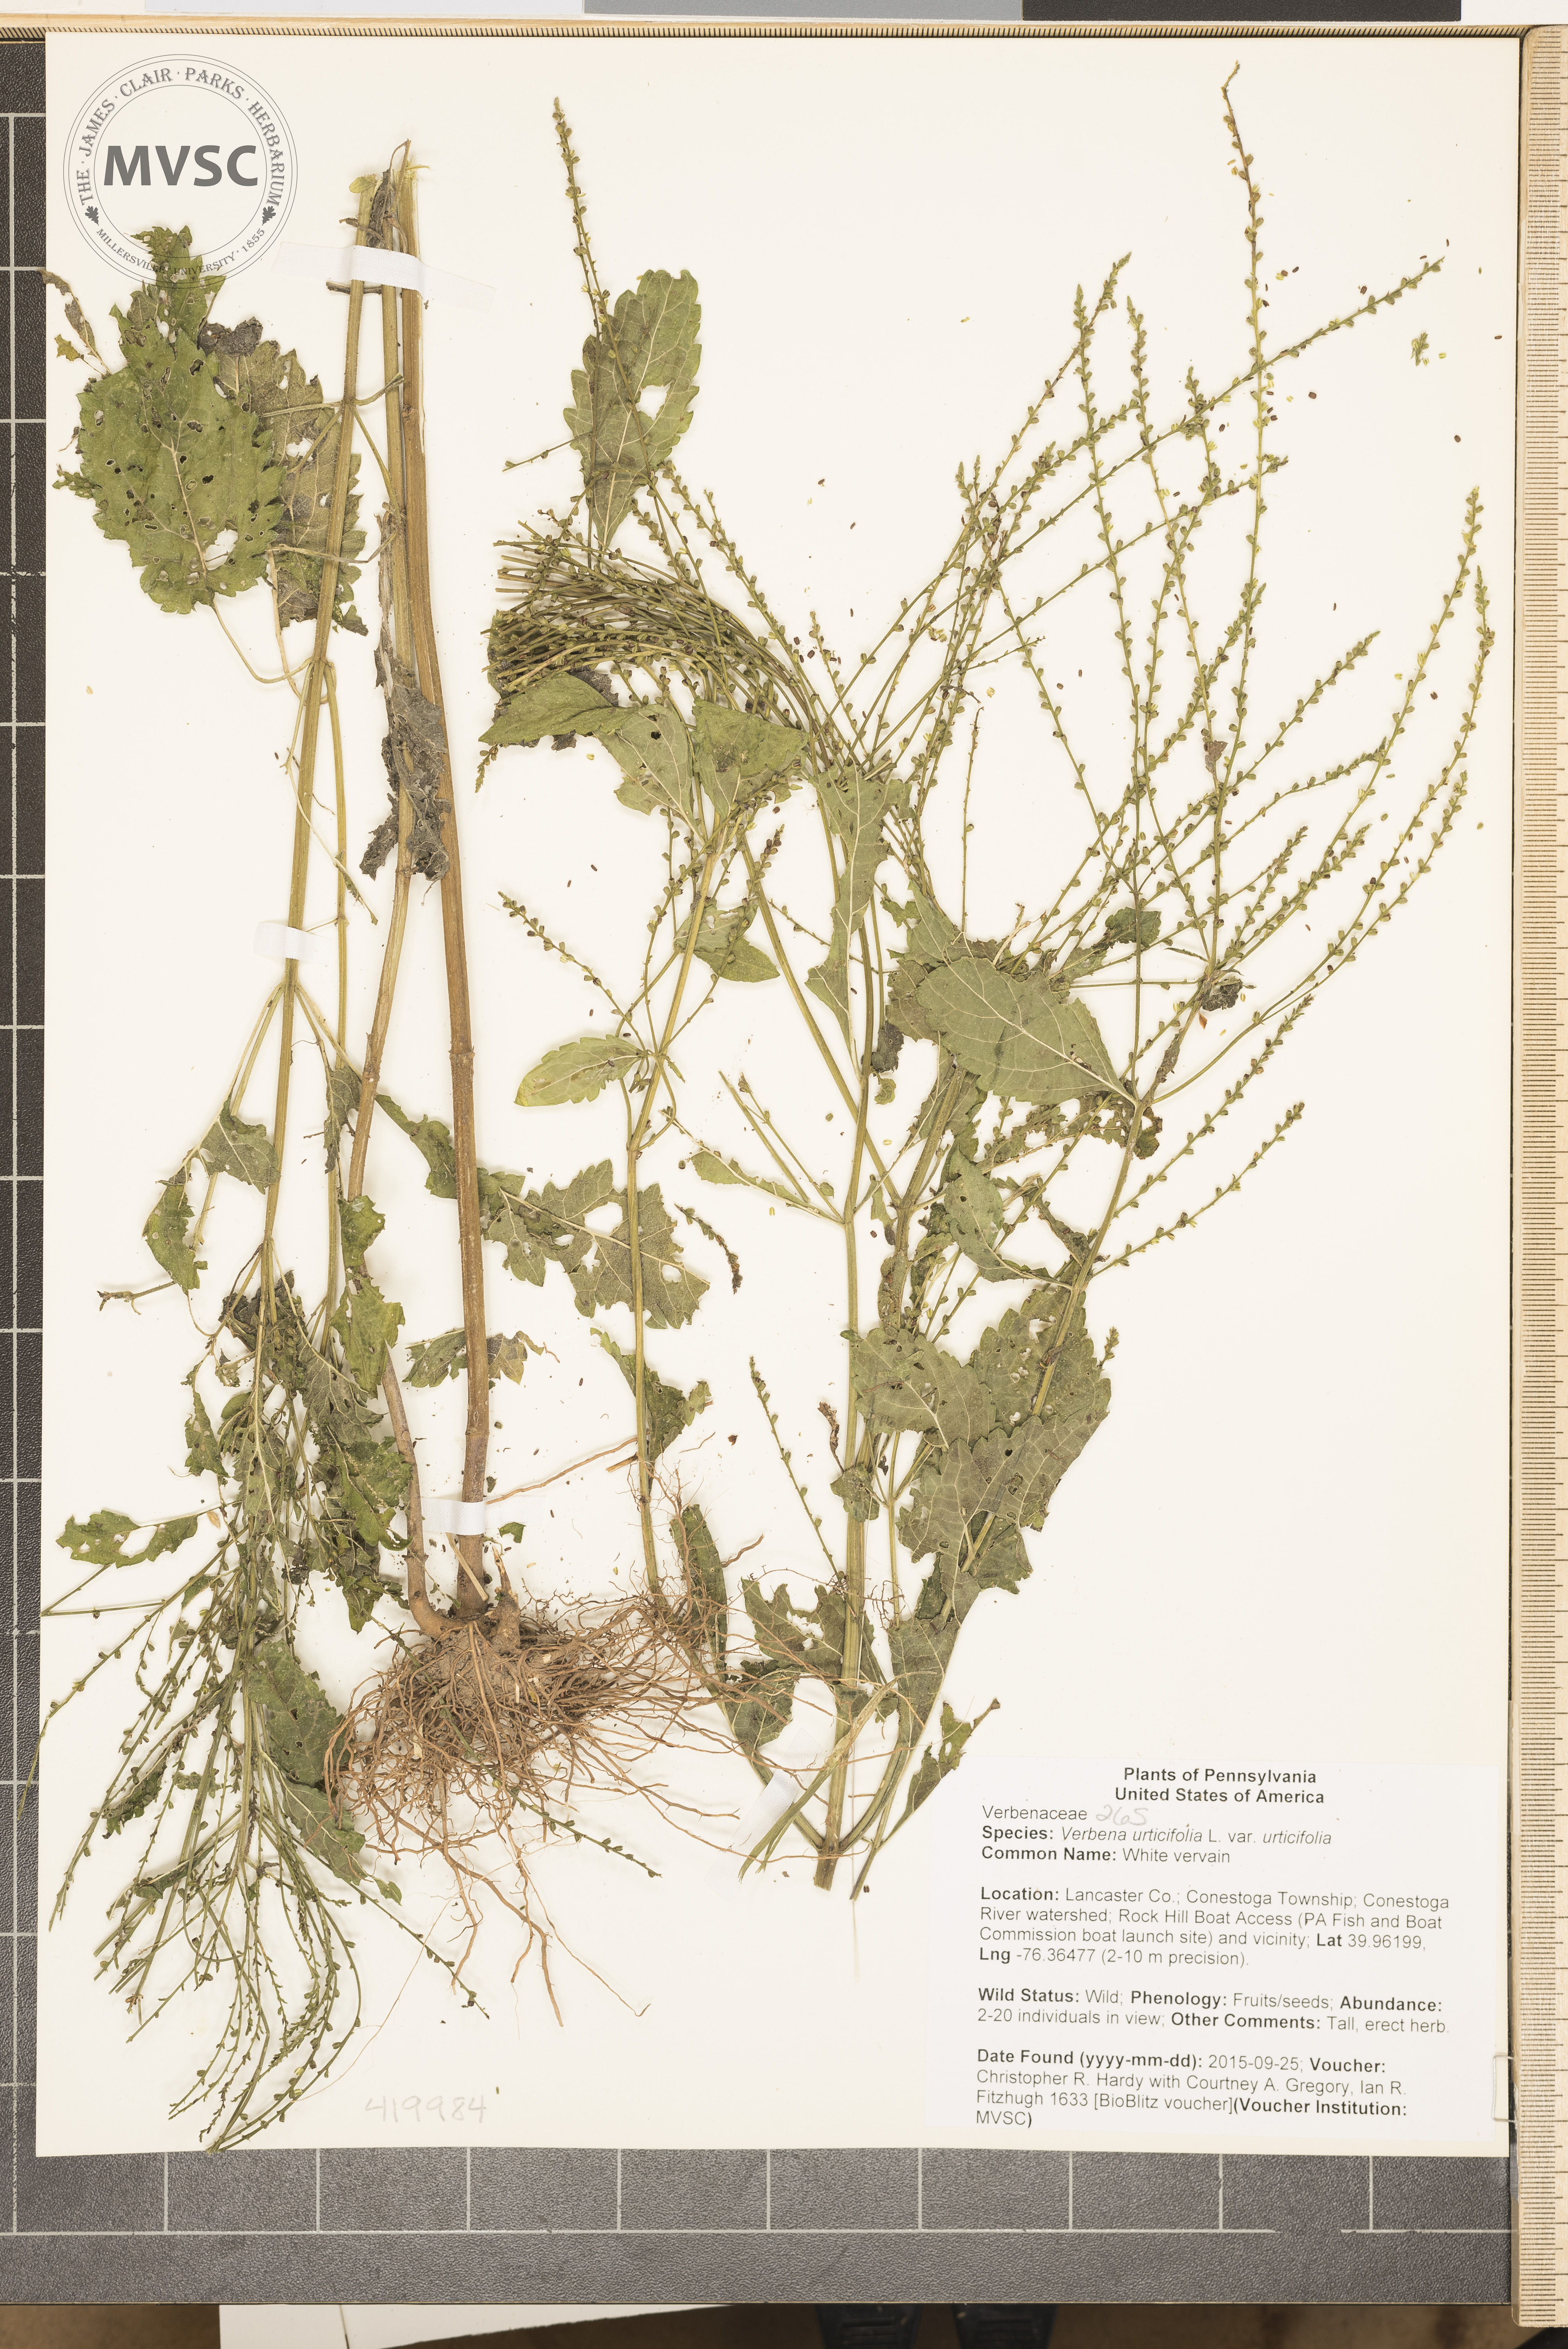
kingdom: Plantae
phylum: Tracheophyta
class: Magnoliopsida
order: Lamiales
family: Verbenaceae
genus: Verbena
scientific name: Verbena urticifolia
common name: White vervain
